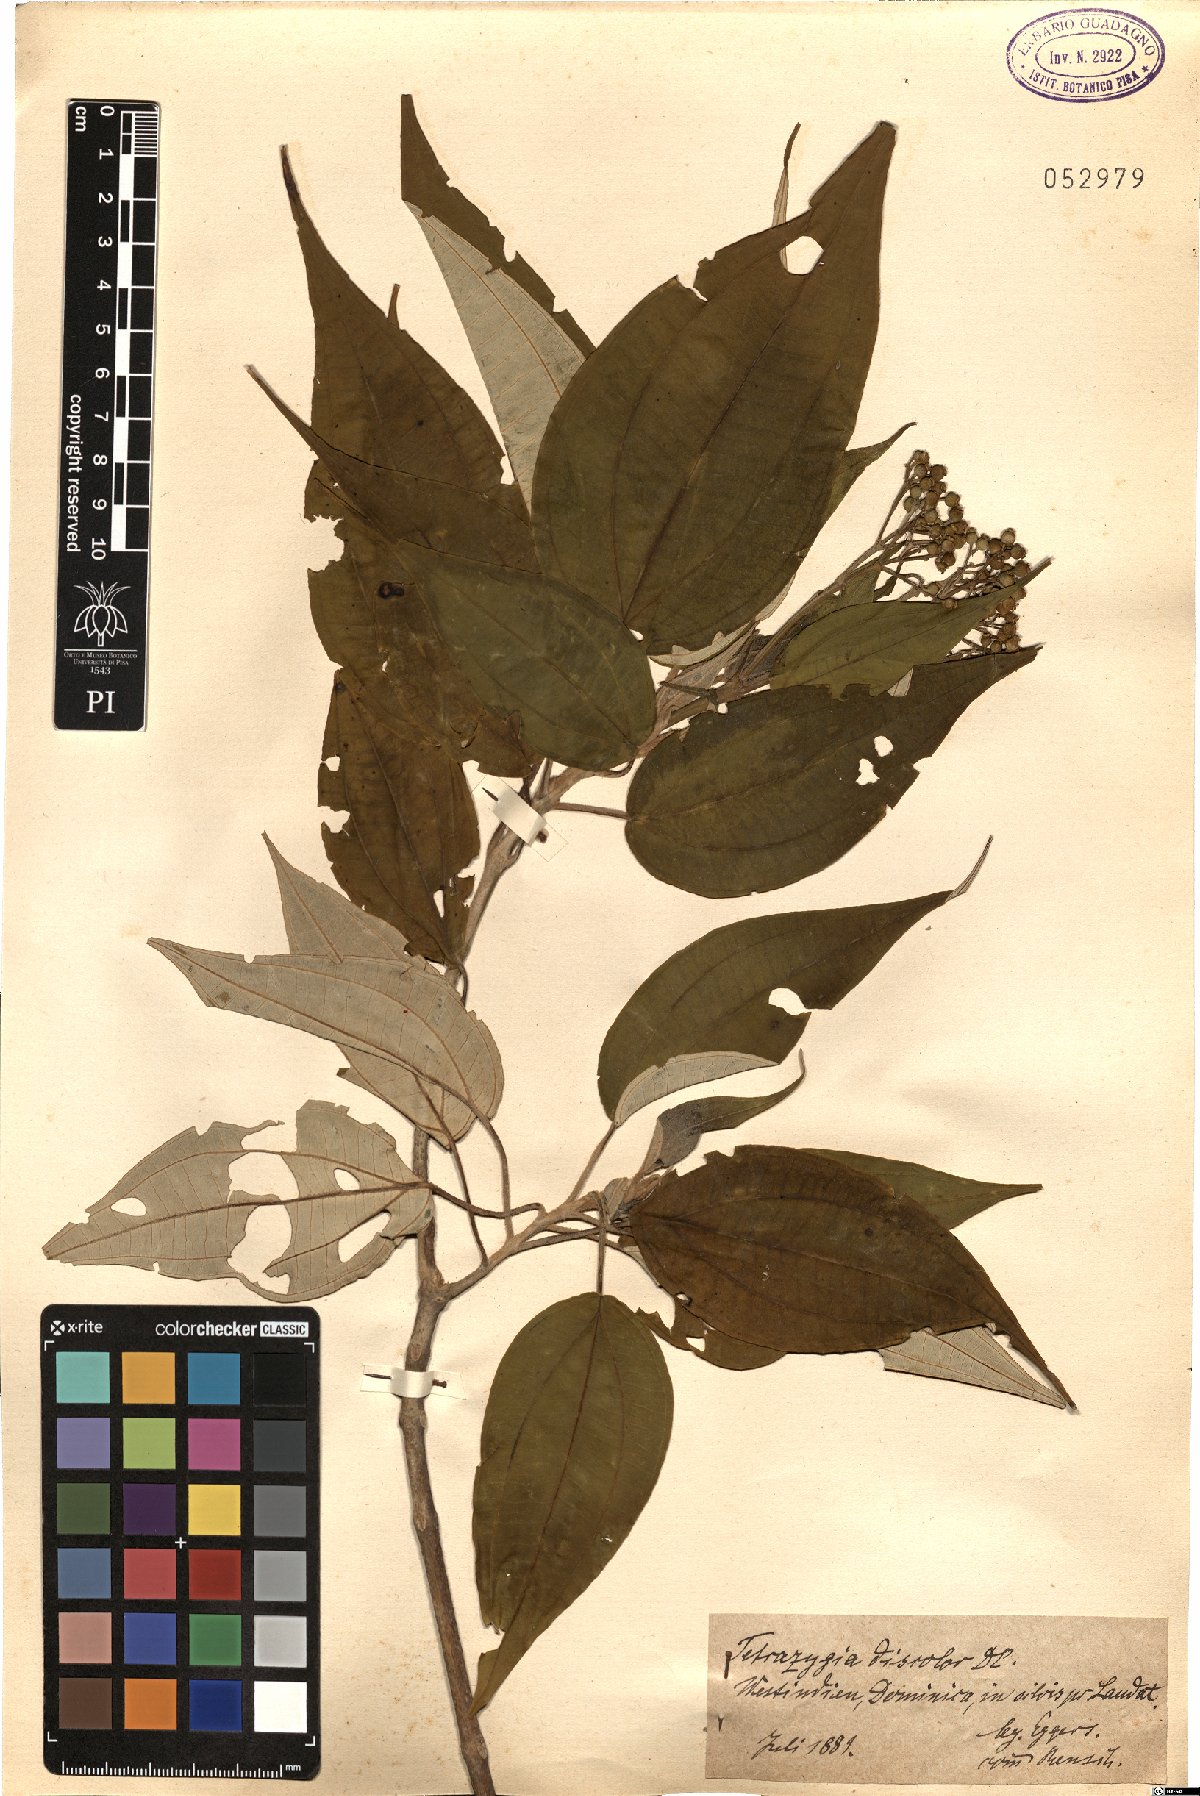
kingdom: Plantae
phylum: Tracheophyta
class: Magnoliopsida
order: Myrtales
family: Melastomataceae
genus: Miconia
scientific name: Miconia christophoriana
